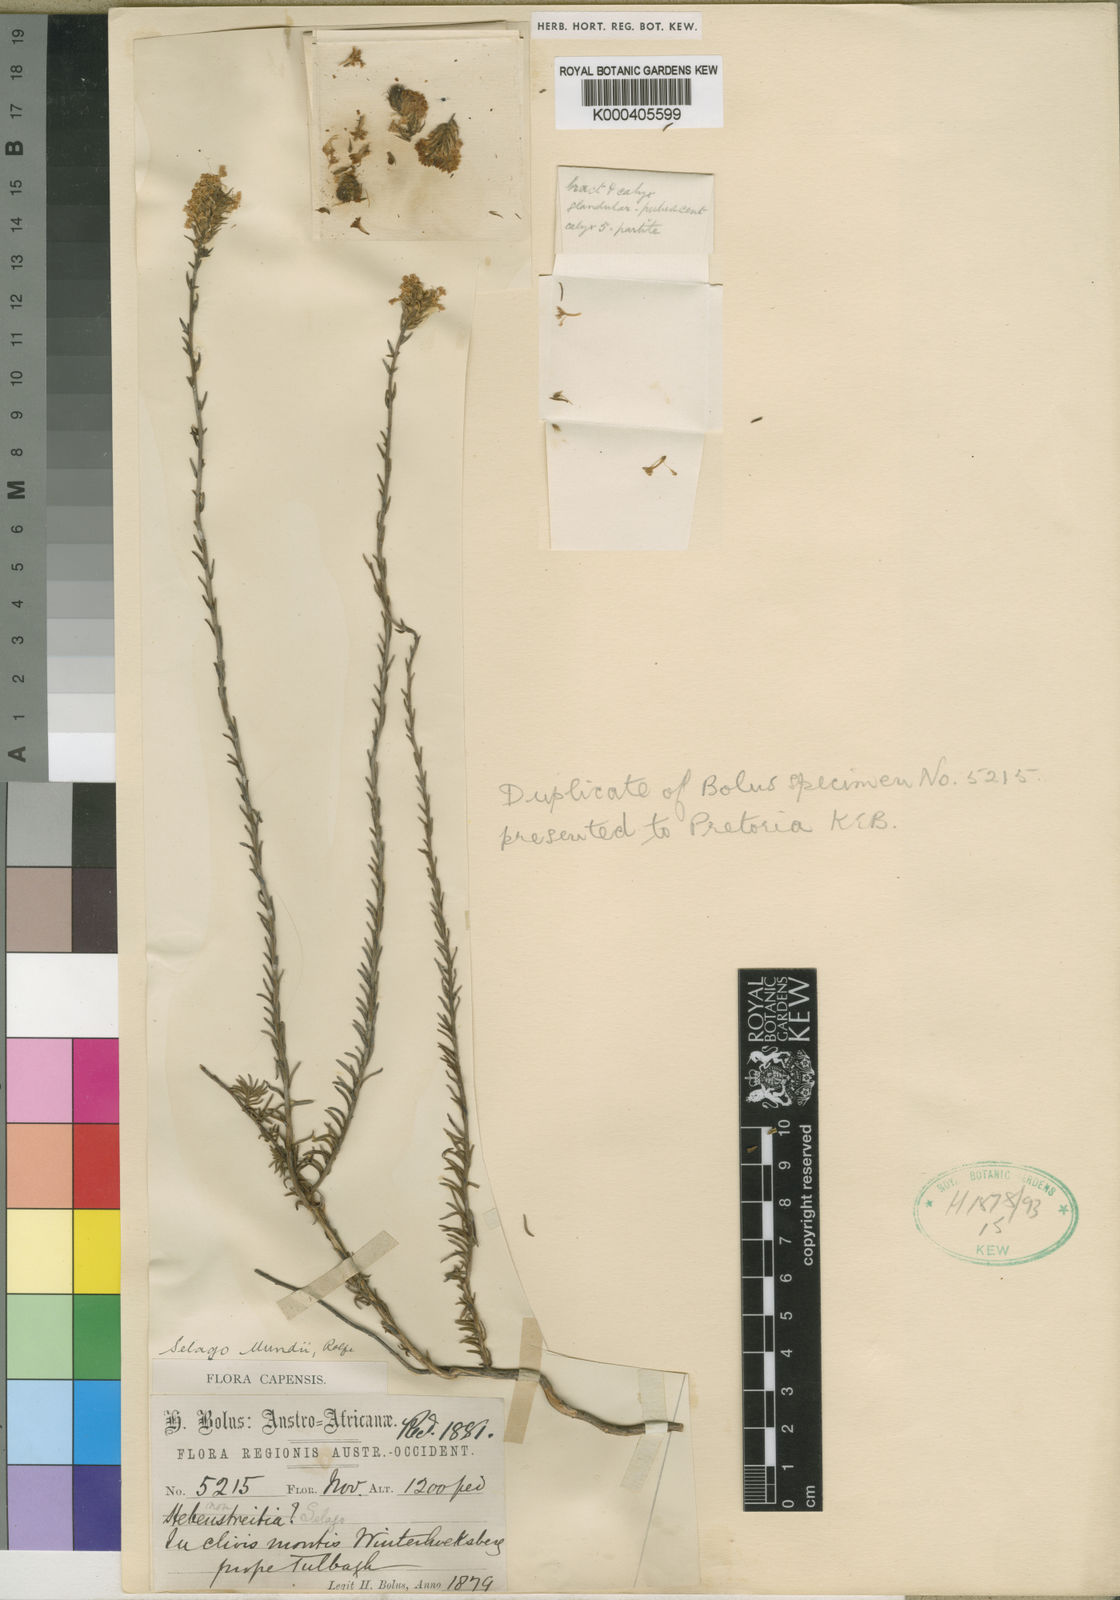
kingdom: Plantae
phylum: Tracheophyta
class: Magnoliopsida
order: Lamiales
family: Scrophulariaceae
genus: Selago
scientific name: Selago mundii
